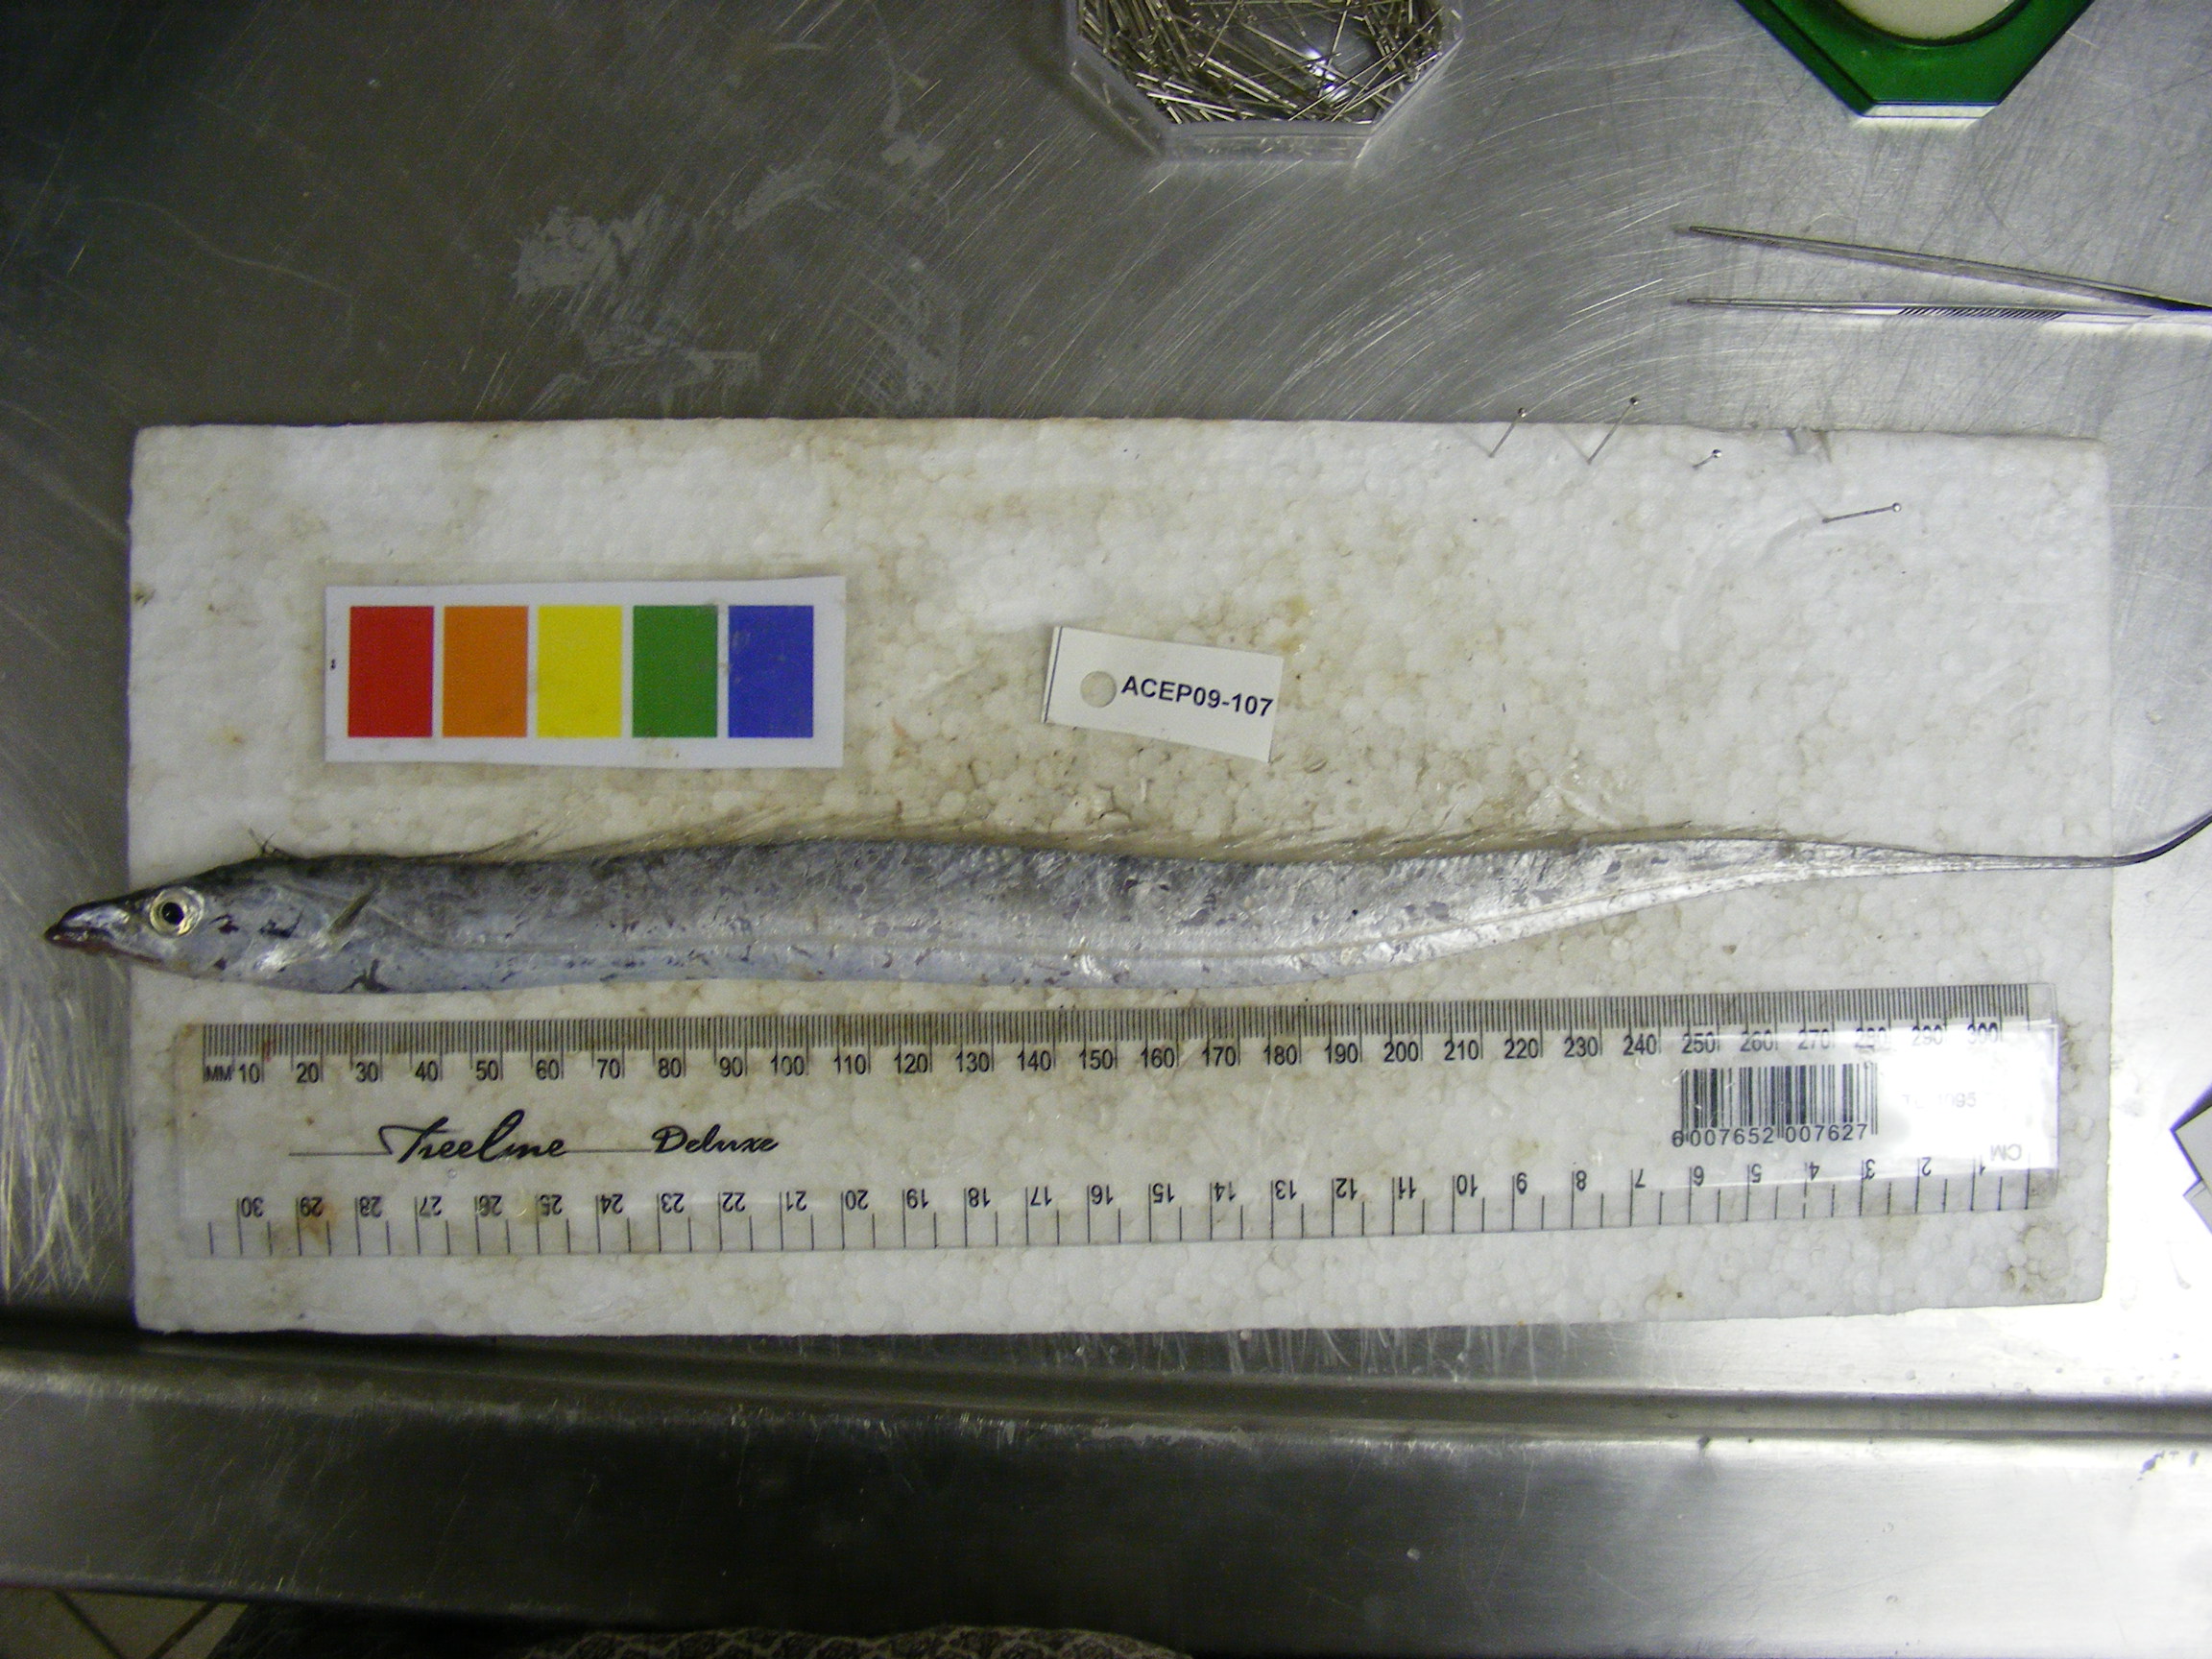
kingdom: Animalia
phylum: Chordata
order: Perciformes
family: Trichiuridae
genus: Trichiurus
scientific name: Trichiurus lepturus
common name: Largehead hairtail
